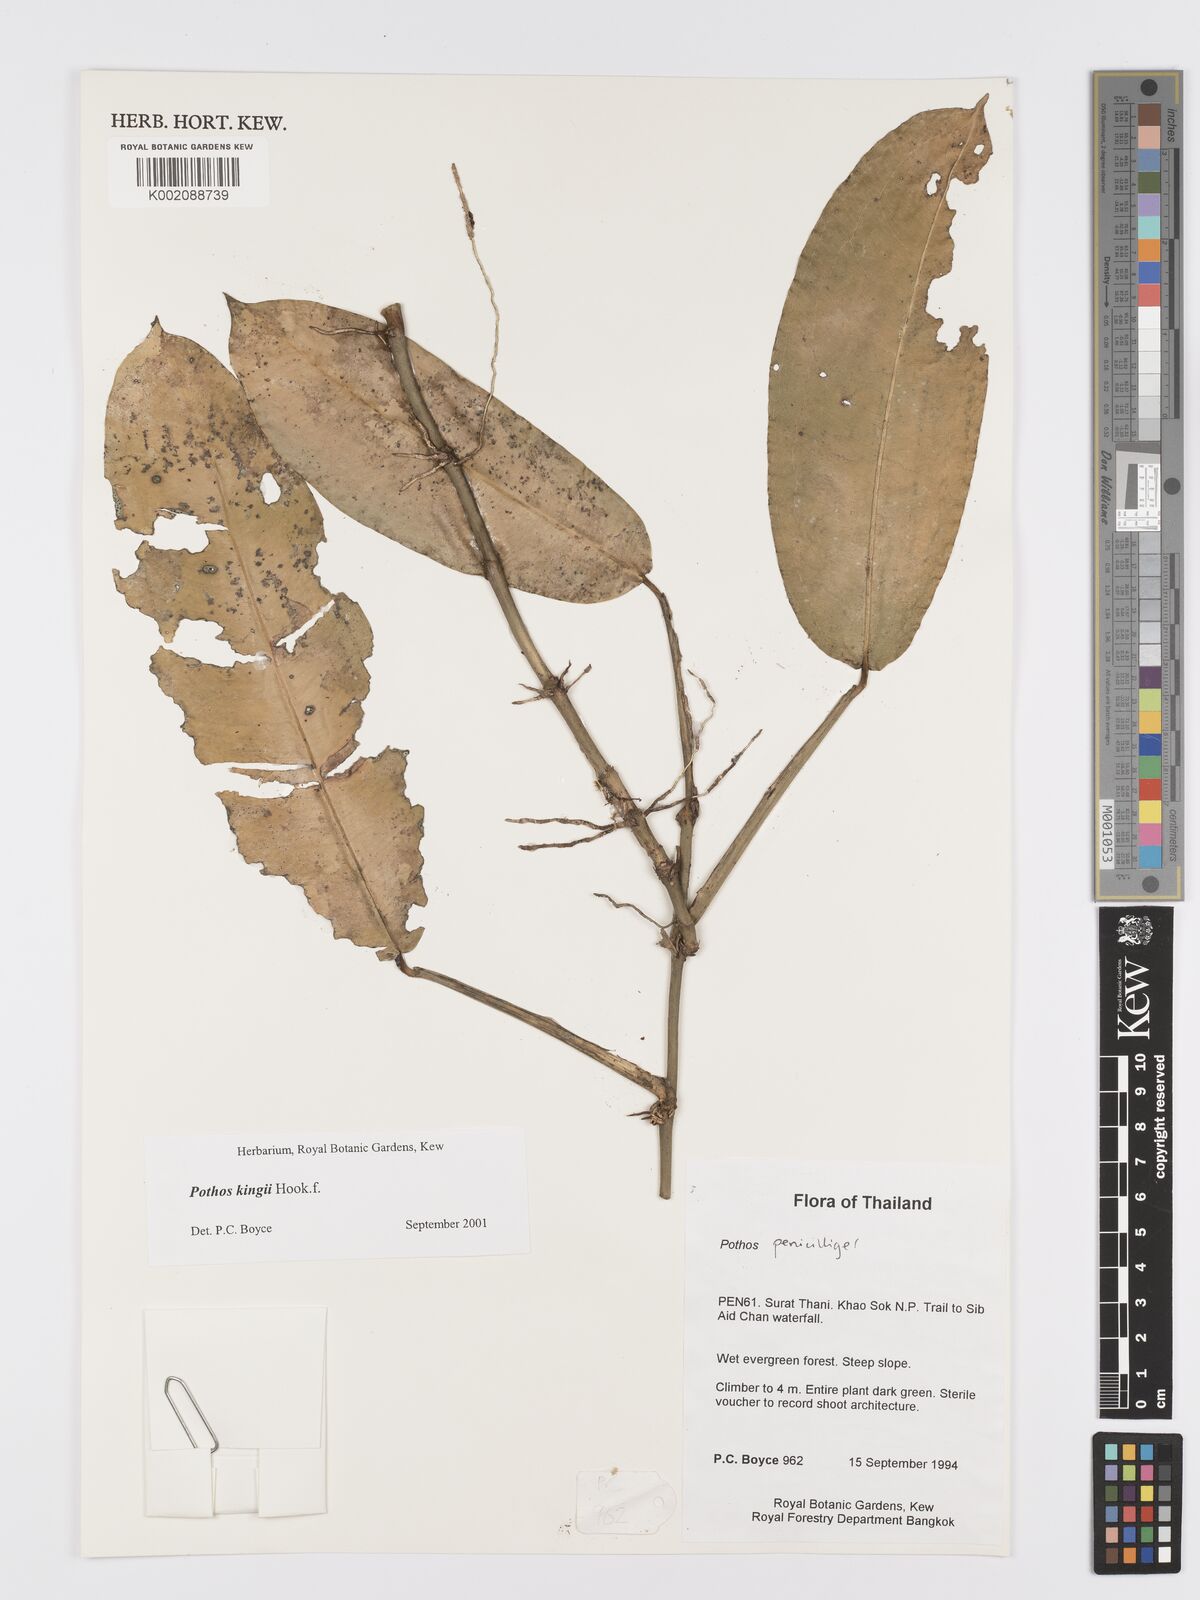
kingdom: Plantae
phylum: Tracheophyta
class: Liliopsida
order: Alismatales
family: Araceae
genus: Pothos
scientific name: Pothos kingii
